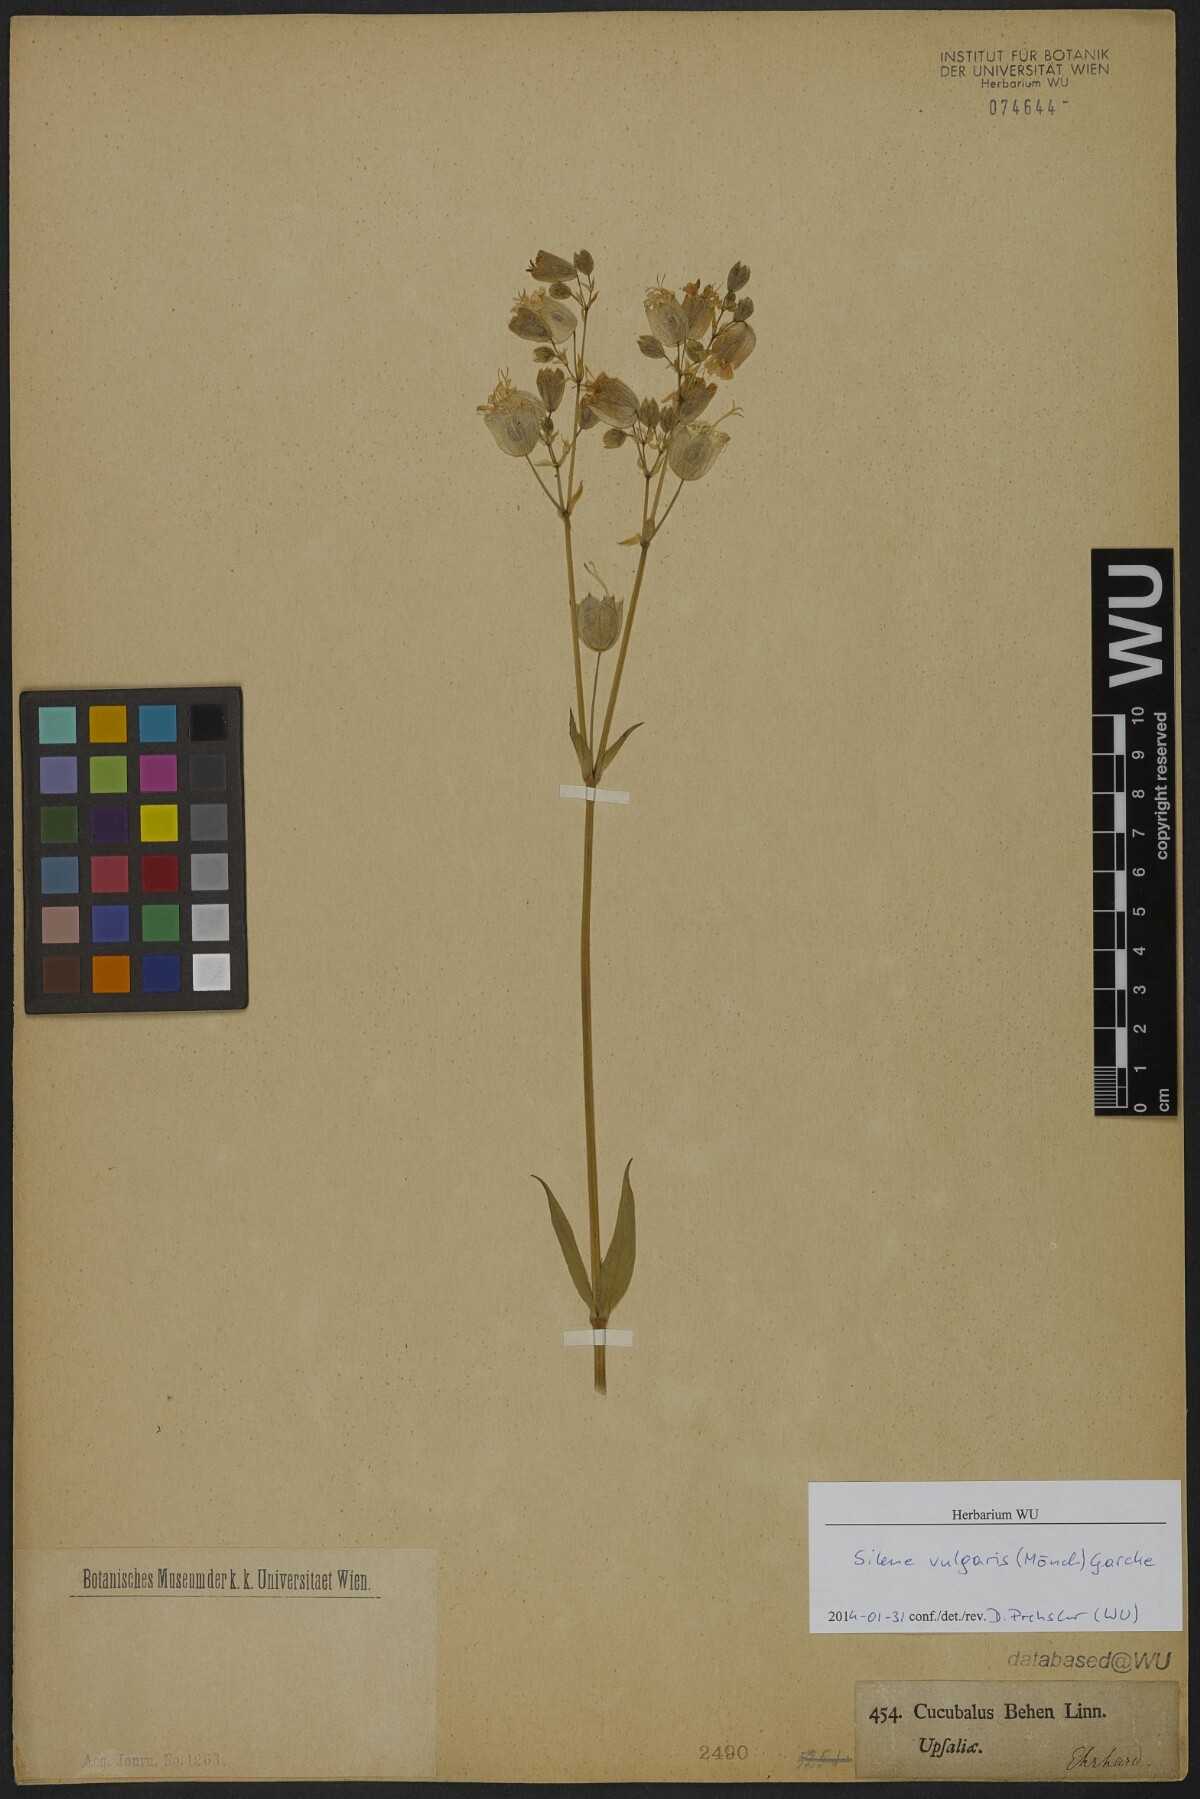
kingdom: Plantae
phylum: Tracheophyta
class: Magnoliopsida
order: Caryophyllales
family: Caryophyllaceae
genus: Silene
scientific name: Silene vulgaris
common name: Bladder campion
